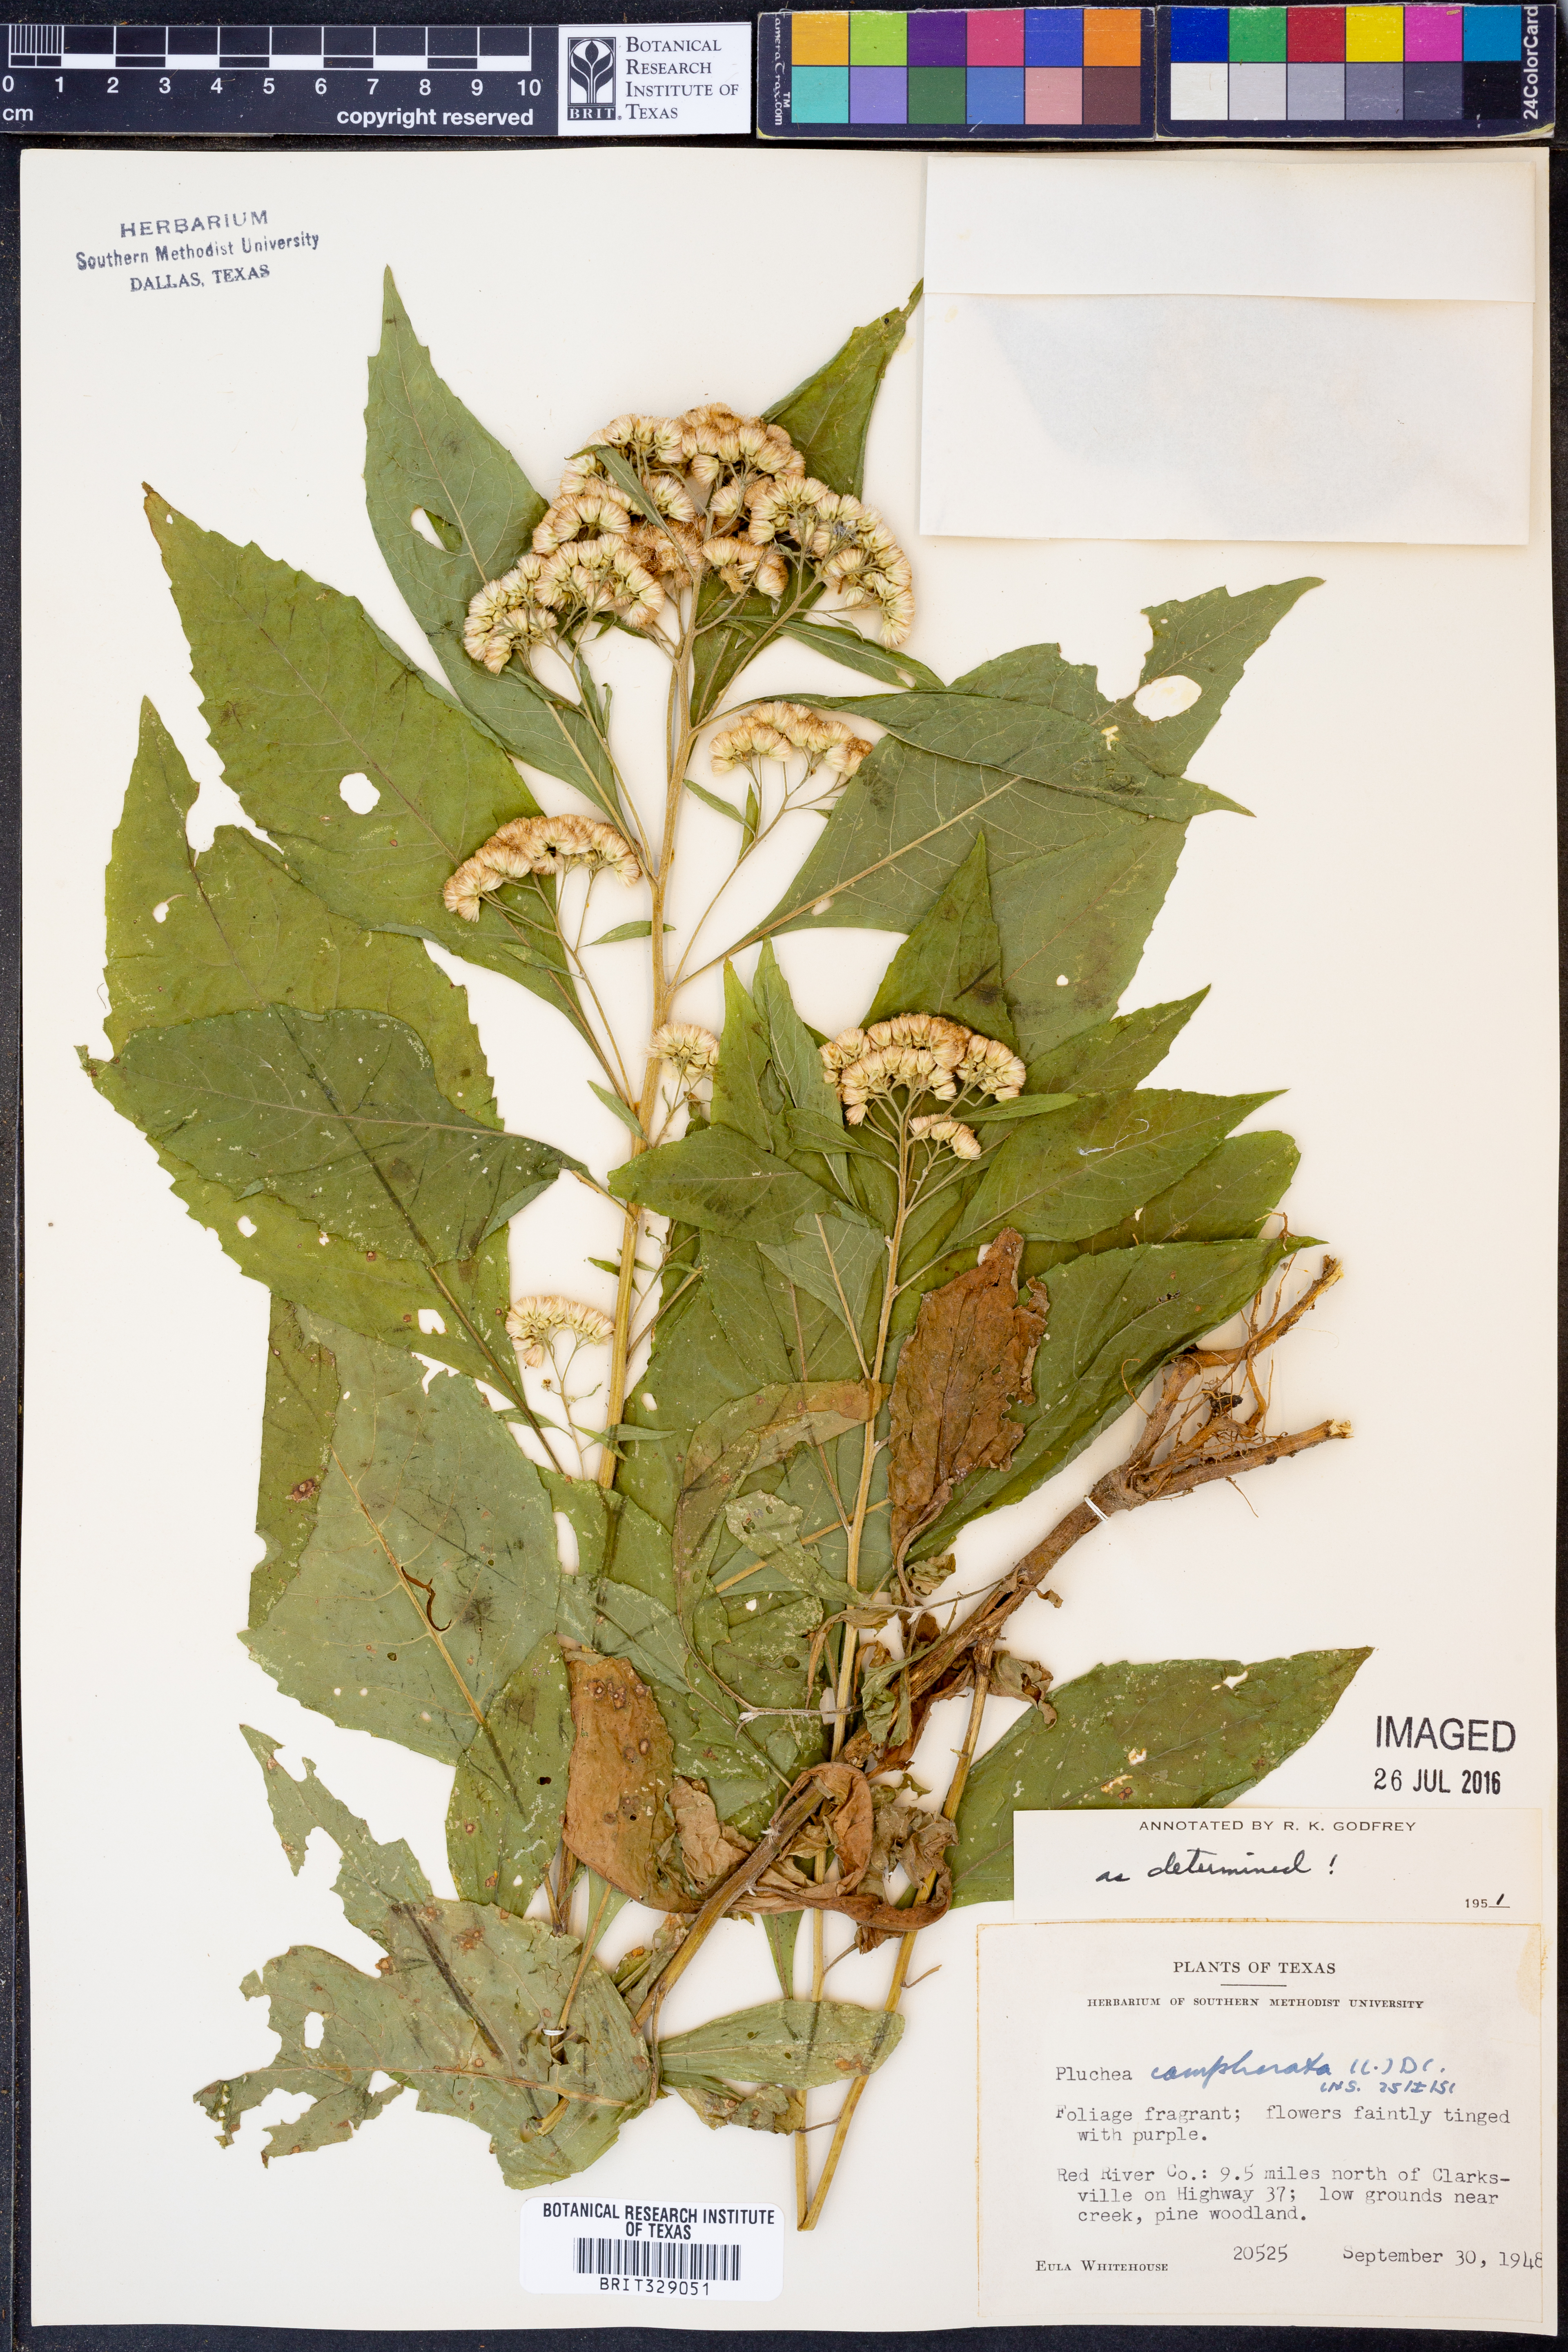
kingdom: Plantae
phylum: Tracheophyta
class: Magnoliopsida
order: Asterales
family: Asteraceae
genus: Pluchea
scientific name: Pluchea camphorata
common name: Camphor pluchea
